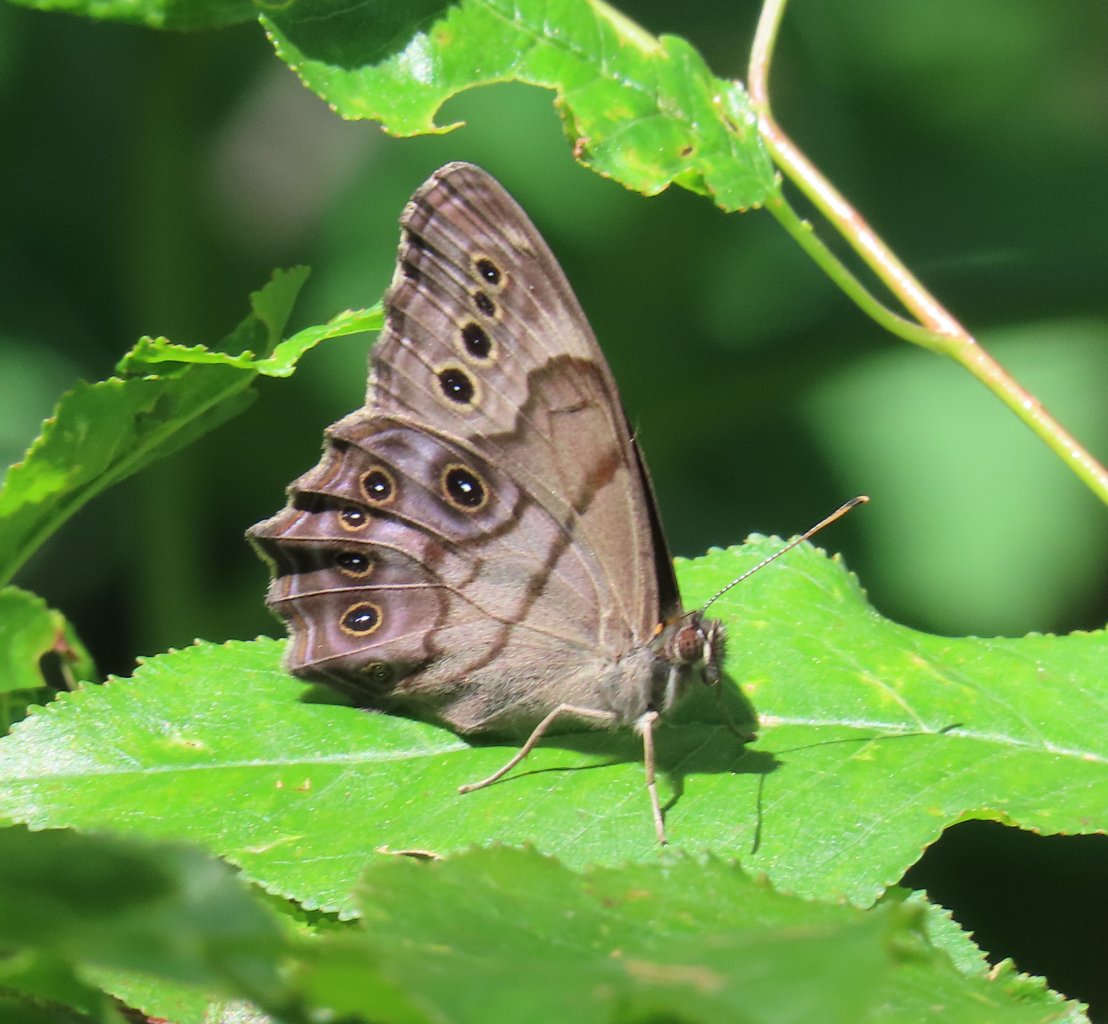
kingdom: Animalia
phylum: Arthropoda
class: Insecta
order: Lepidoptera
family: Nymphalidae
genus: Lethe
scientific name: Lethe anthedon
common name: Northern Pearly-Eye
